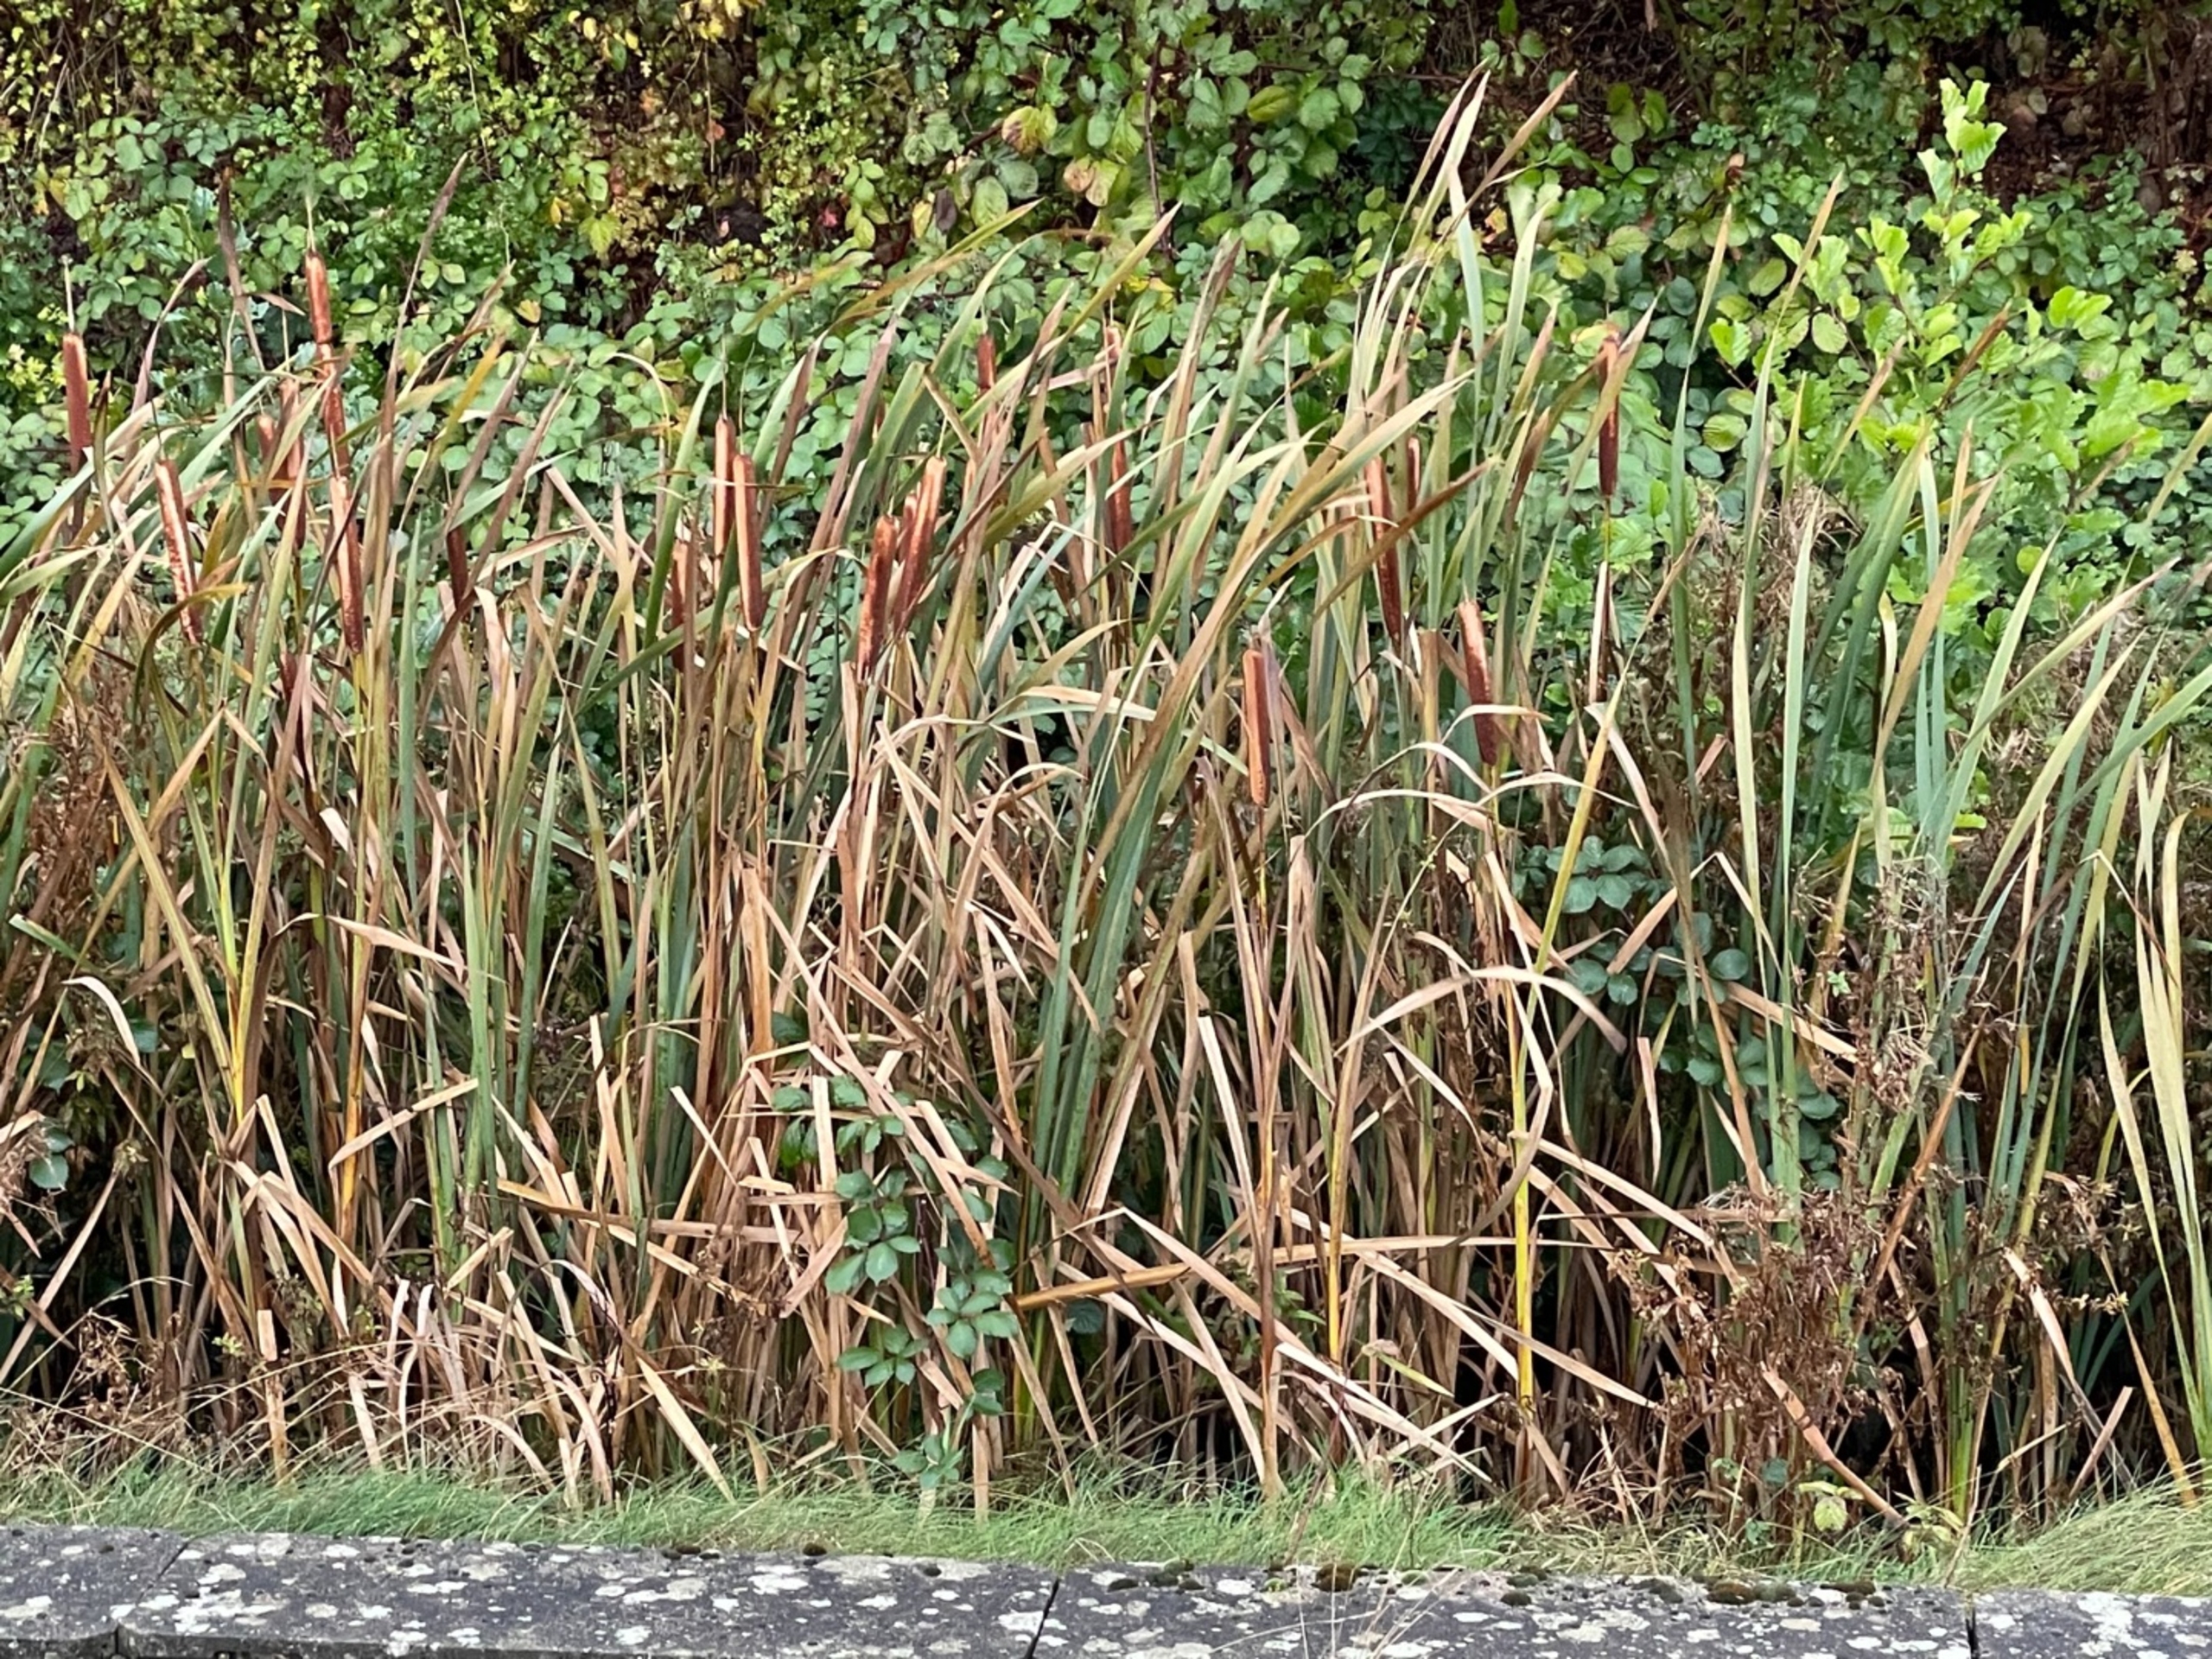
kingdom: Plantae
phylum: Tracheophyta
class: Liliopsida
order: Poales
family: Typhaceae
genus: Typha
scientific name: Typha latifolia
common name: Bredbladet dunhammer
